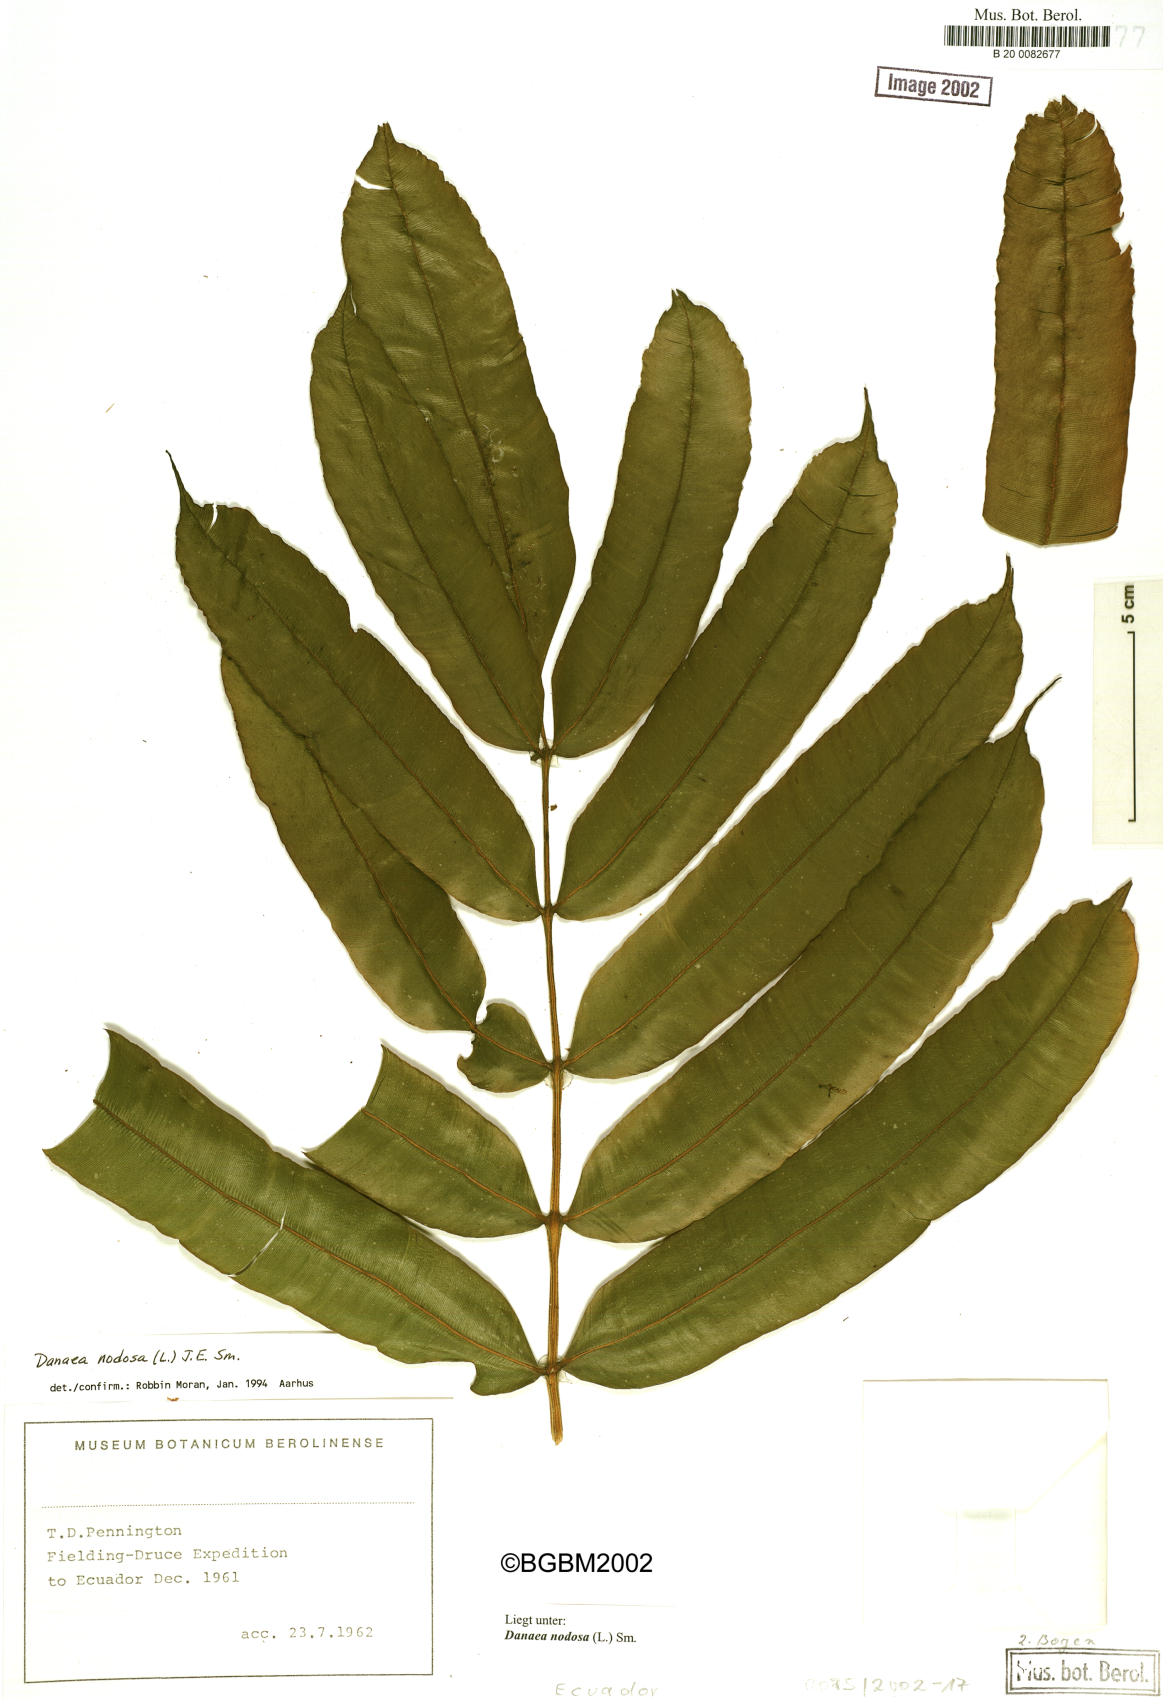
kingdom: Plantae
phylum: Tracheophyta
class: Polypodiopsida
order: Marattiales
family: Marattiaceae
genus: Danaea
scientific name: Danaea erecta
